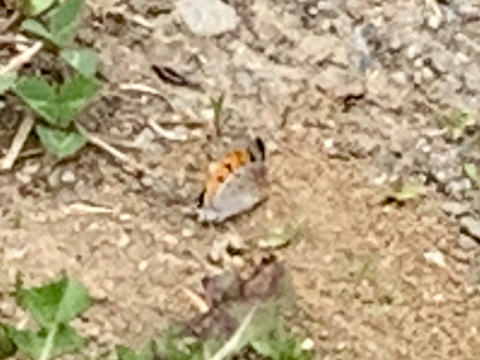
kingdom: Animalia
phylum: Arthropoda
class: Insecta
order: Lepidoptera
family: Lycaenidae
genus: Lycaena
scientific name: Lycaena phlaeas
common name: American Copper
